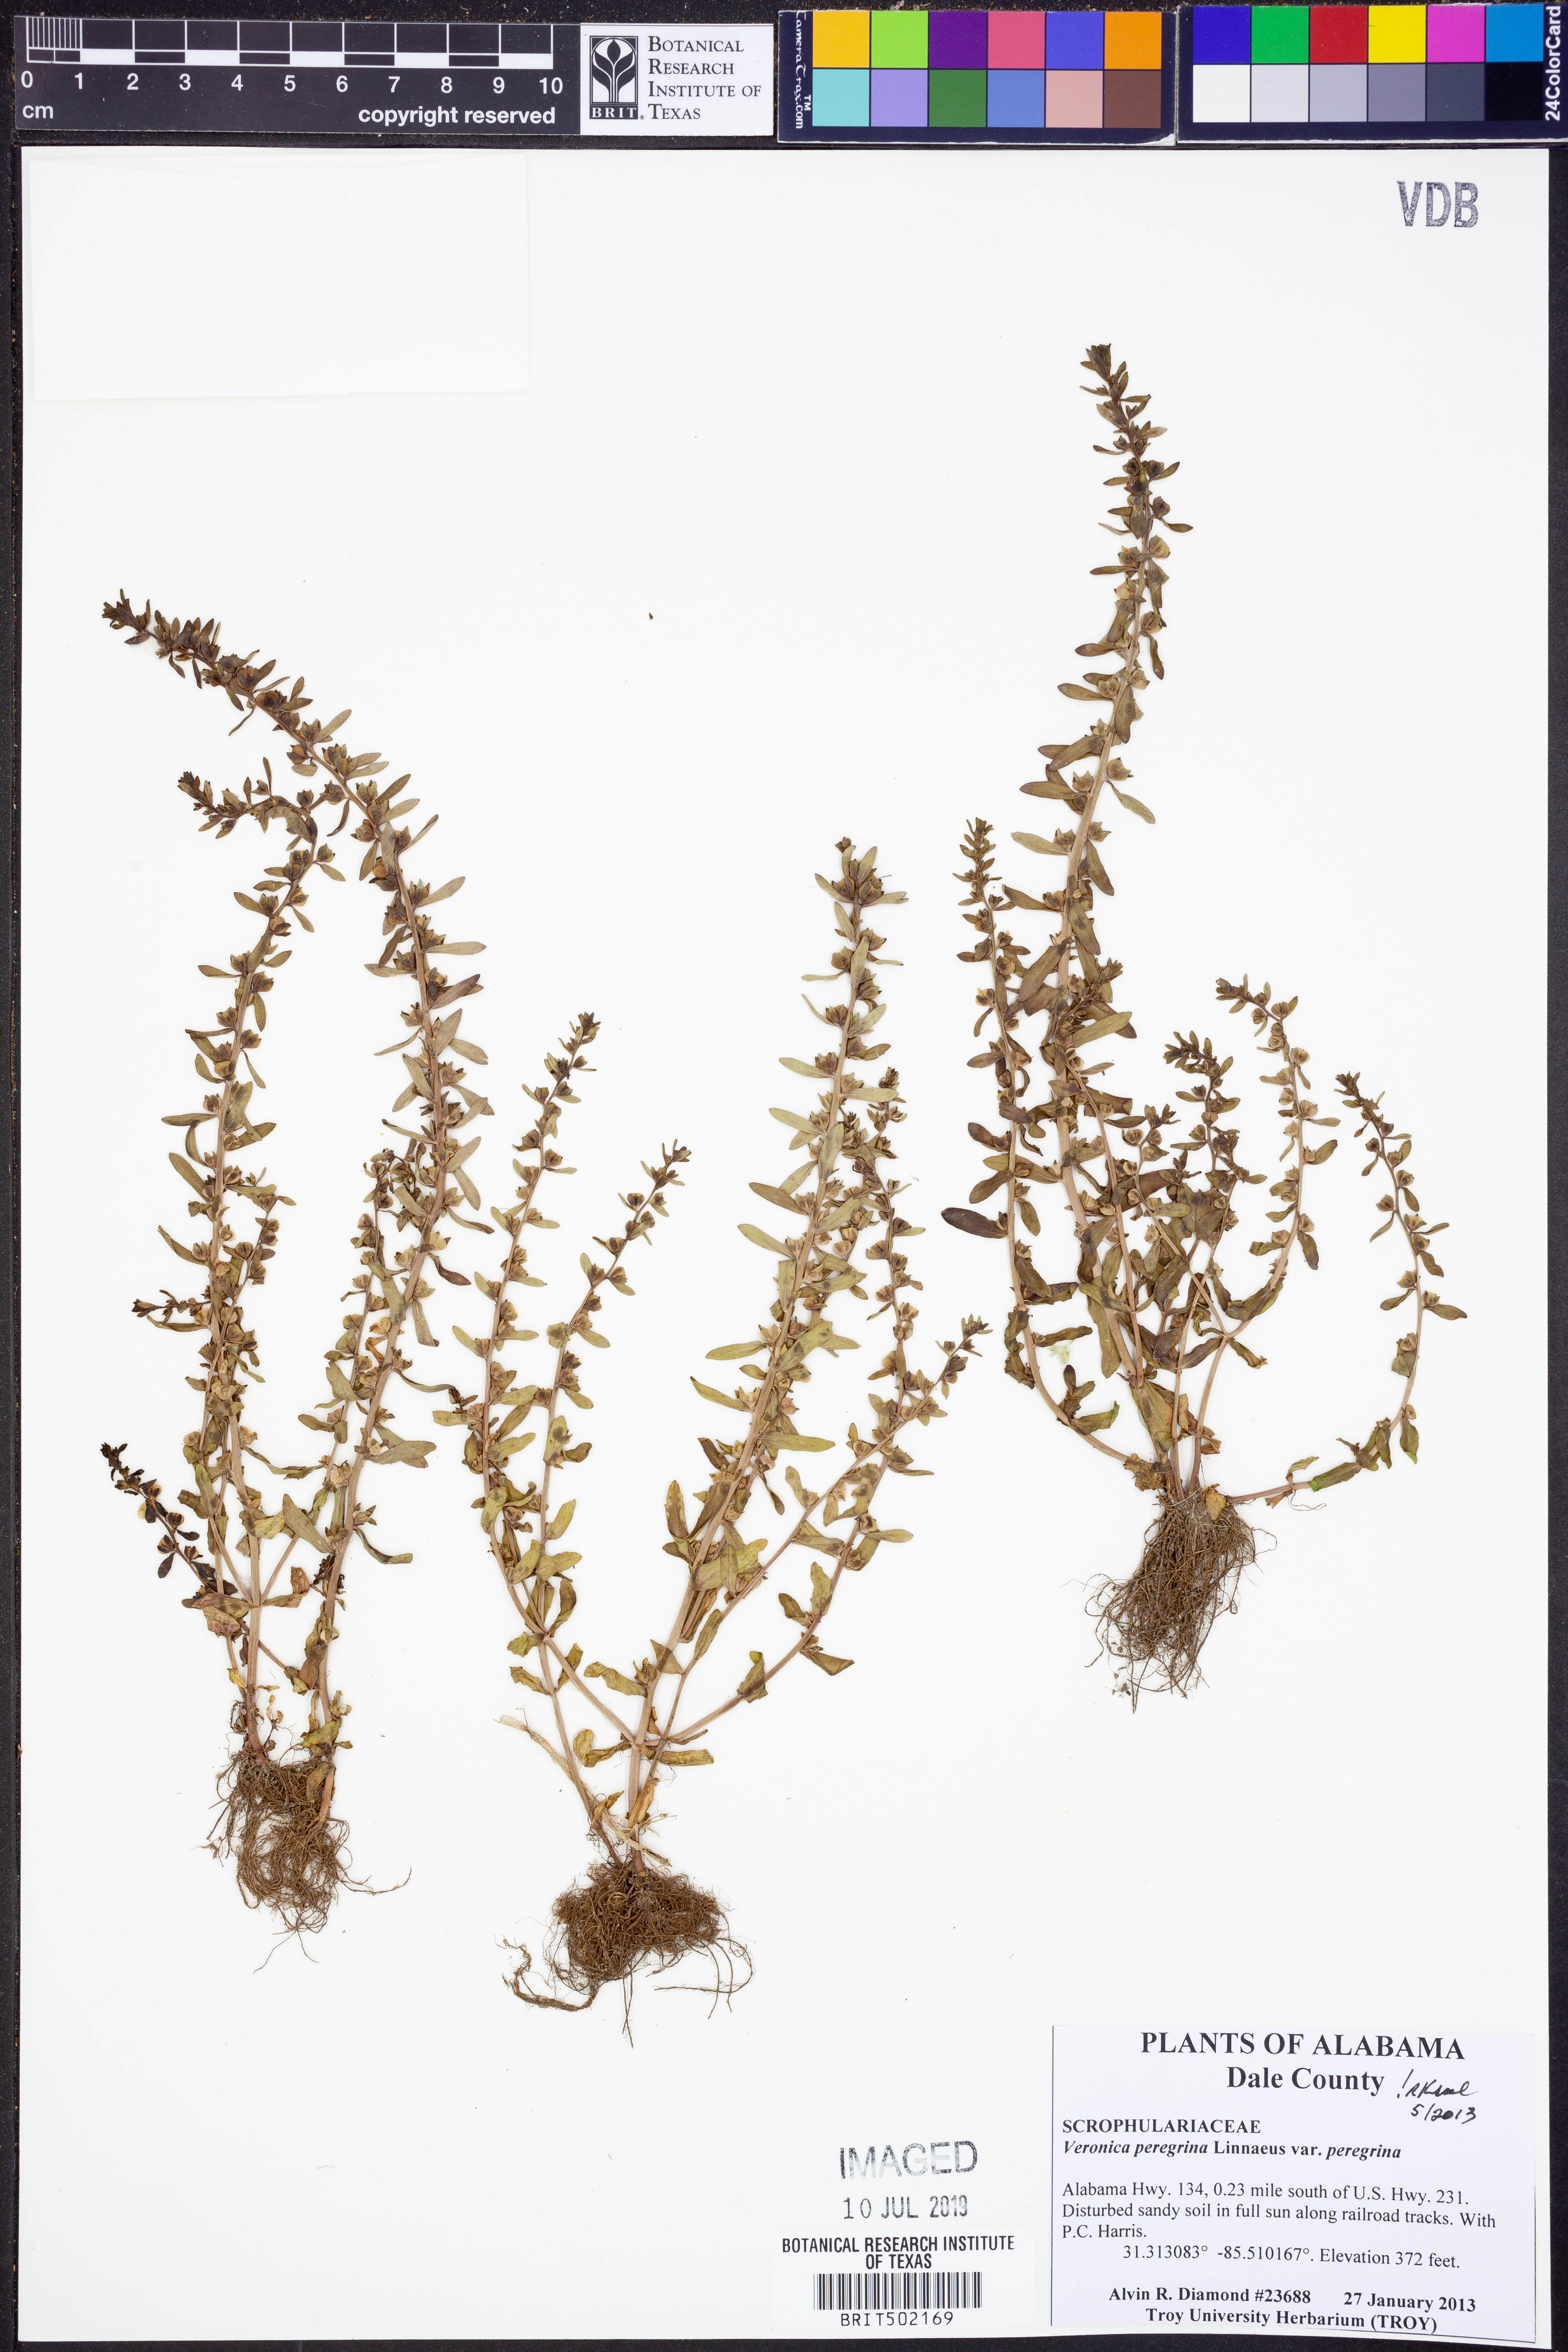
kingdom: Plantae
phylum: Tracheophyta
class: Magnoliopsida
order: Lamiales
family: Plantaginaceae
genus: Veronica
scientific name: Veronica peregrina
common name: Neckweed
